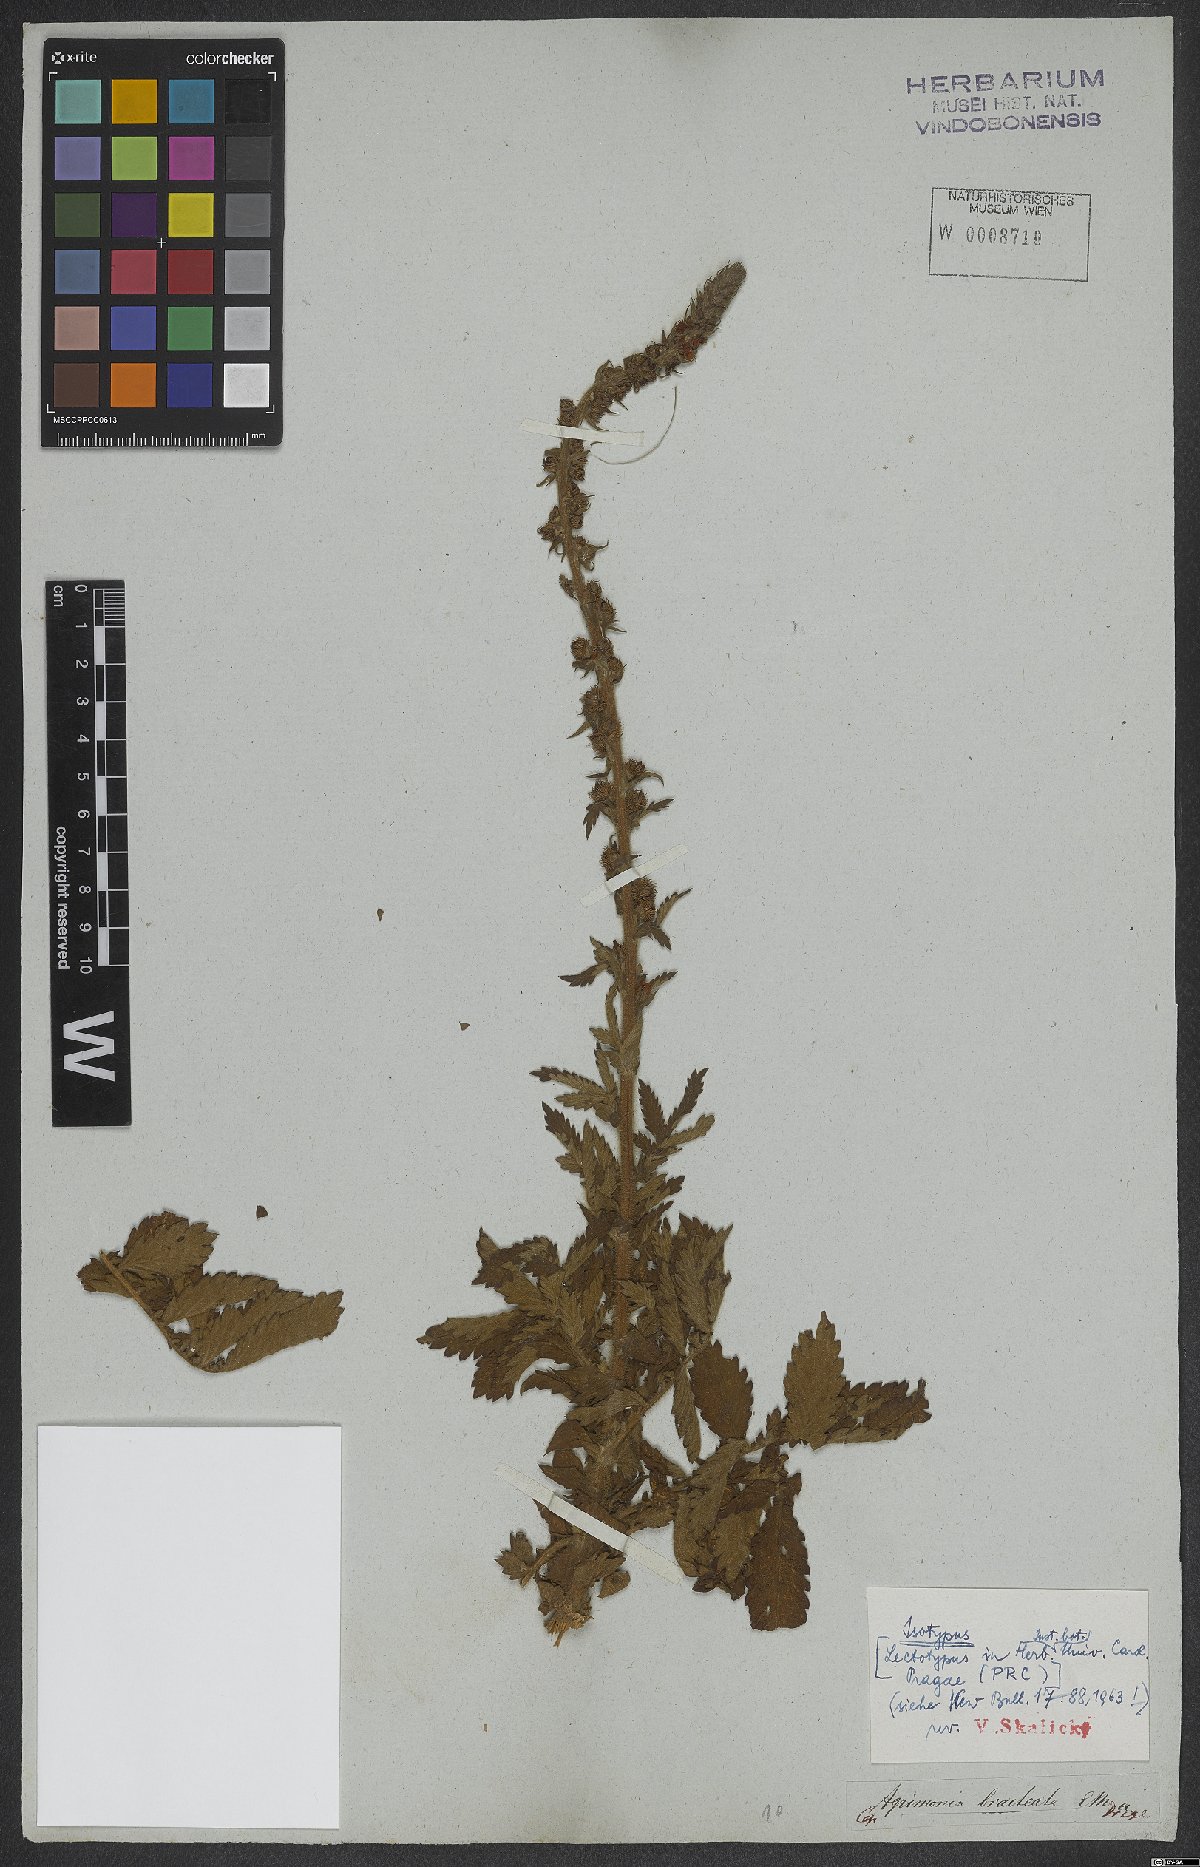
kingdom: Plantae
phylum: Tracheophyta
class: Magnoliopsida
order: Rosales
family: Rosaceae
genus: Agrimonia
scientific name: Agrimonia bracteata
